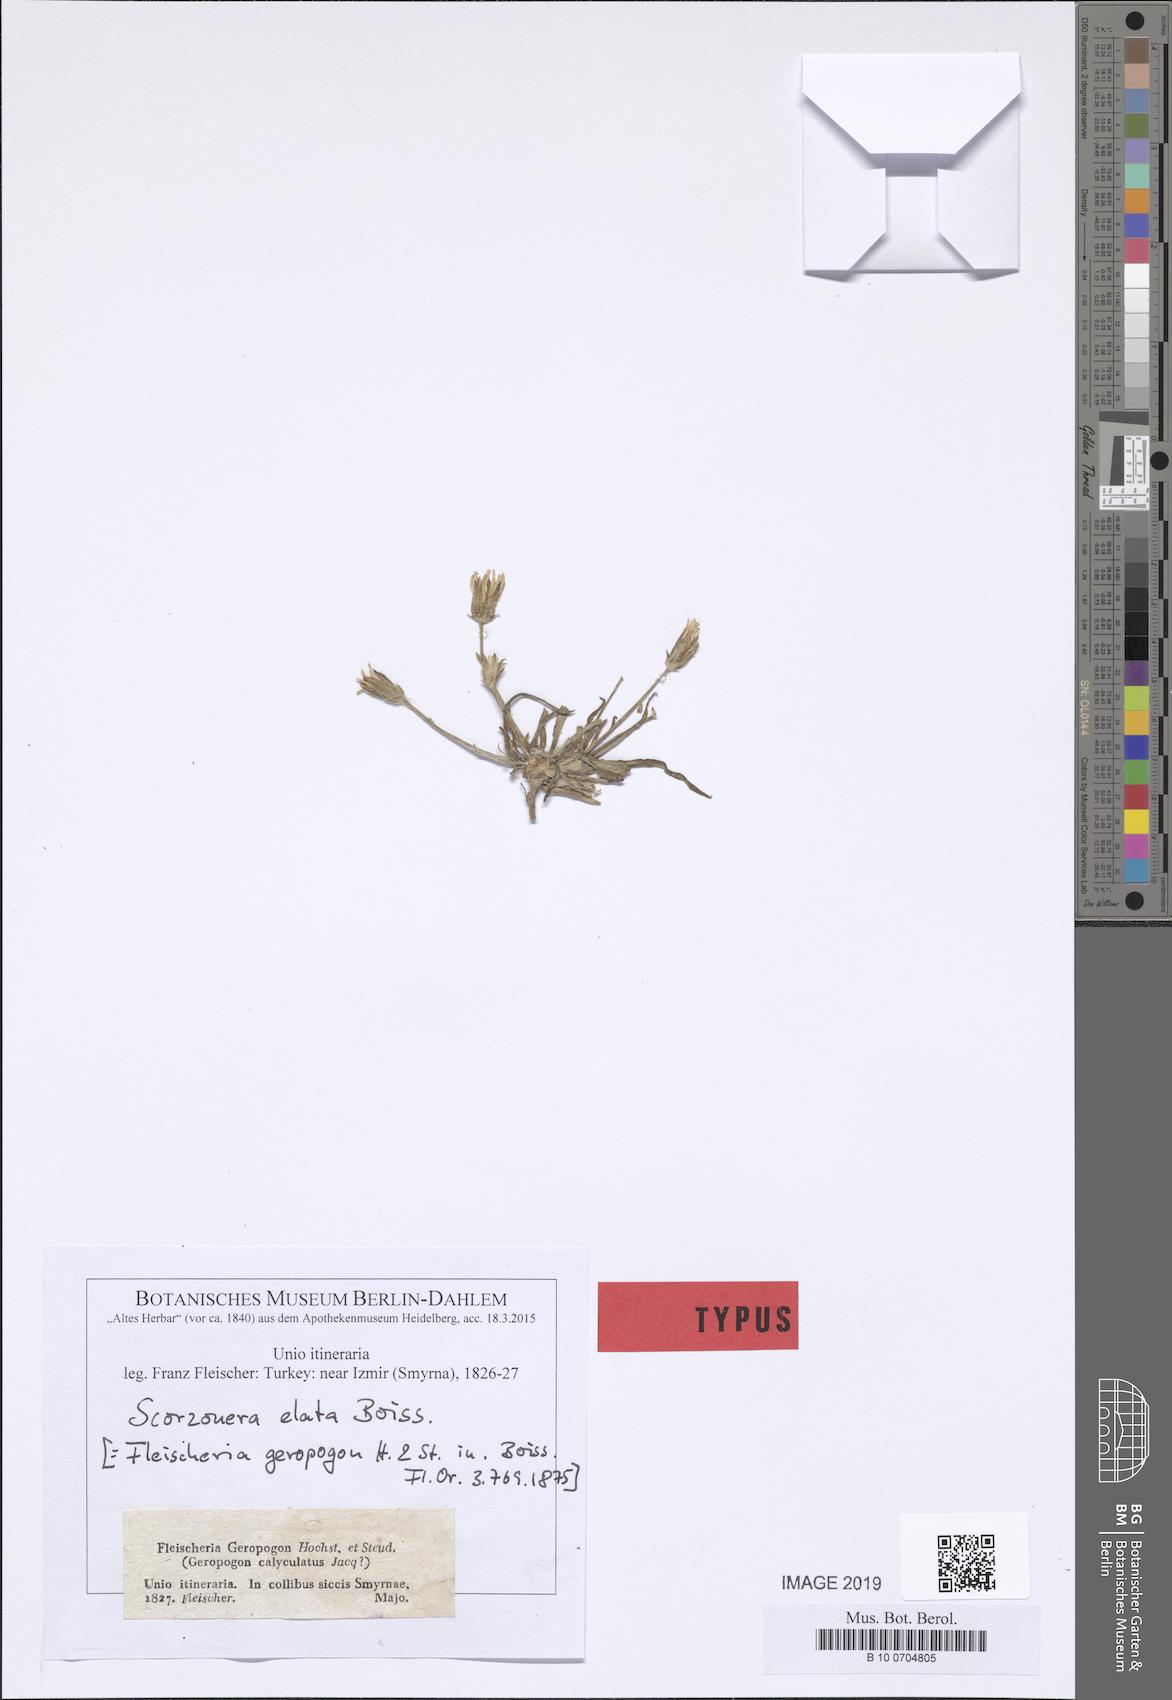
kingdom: Plantae
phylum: Tracheophyta
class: Magnoliopsida
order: Asterales
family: Asteraceae
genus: Candollea
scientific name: Candollea elata
